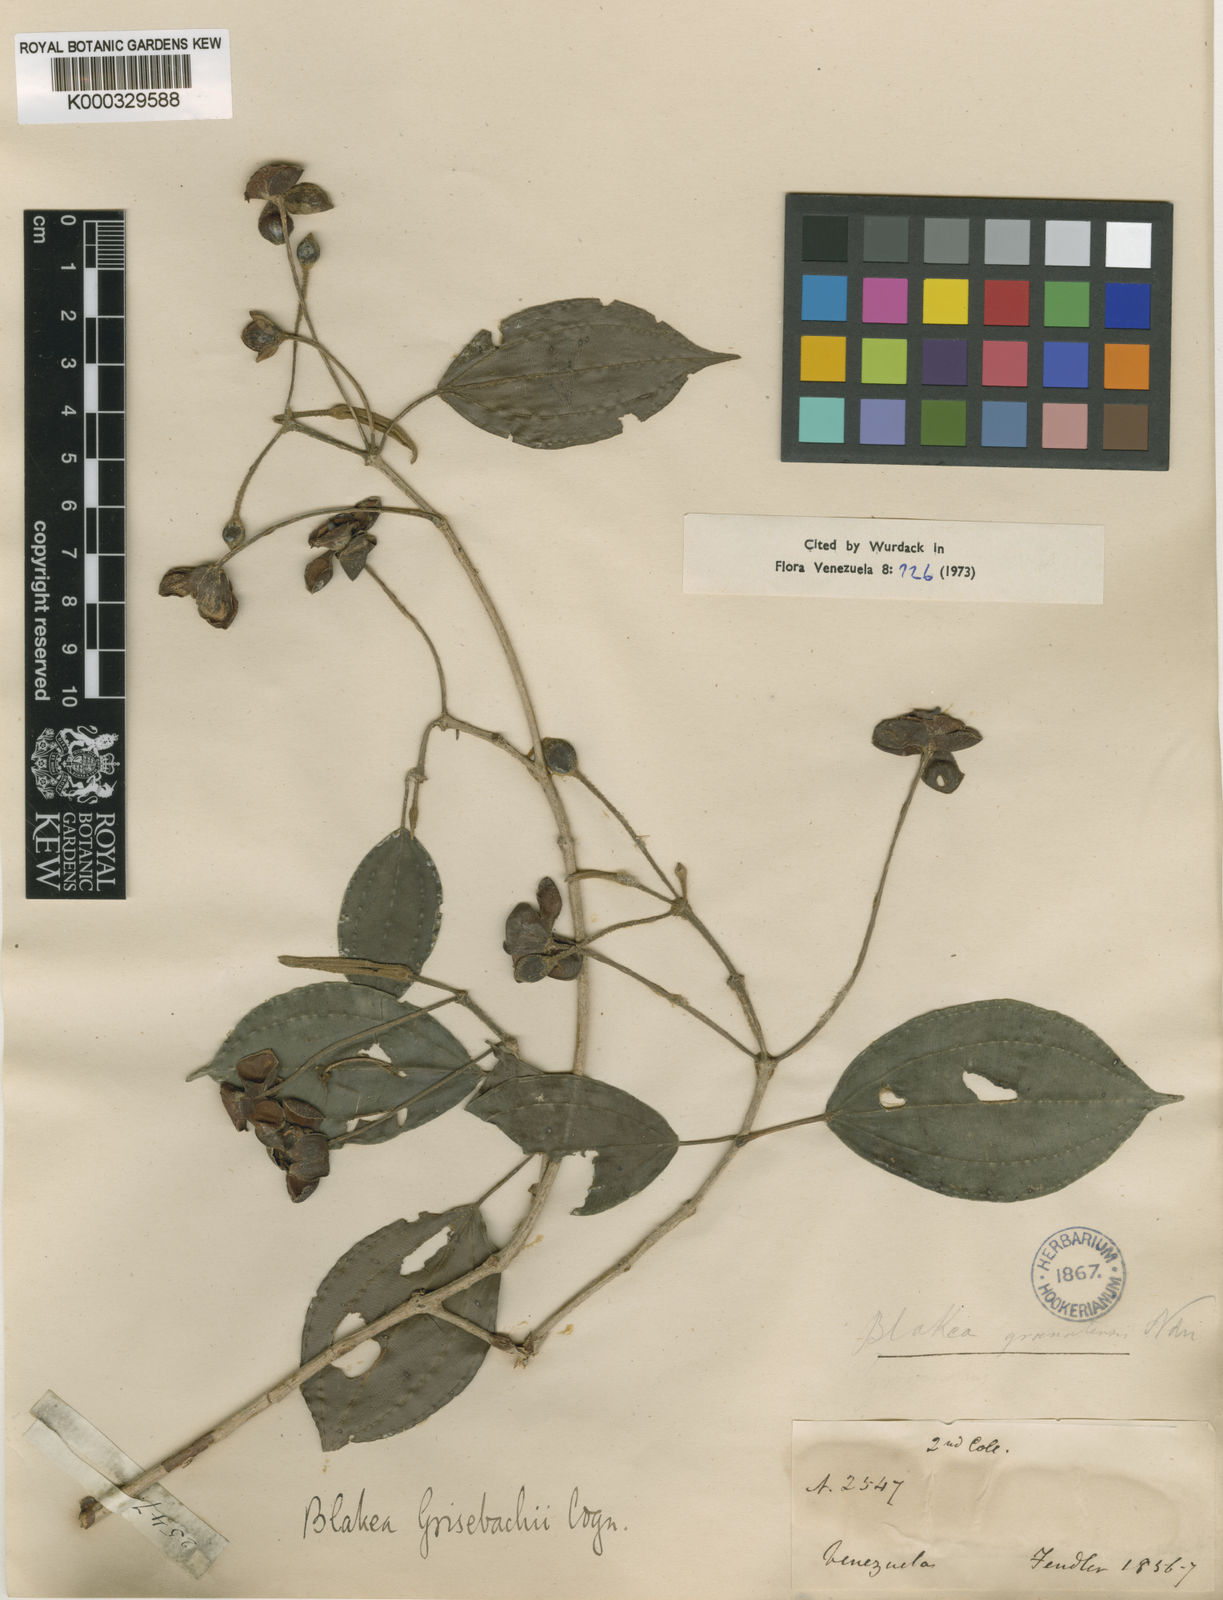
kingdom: Plantae
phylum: Tracheophyta
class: Magnoliopsida
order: Myrtales
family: Melastomataceae
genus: Blakea
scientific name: Blakea grisebachii
